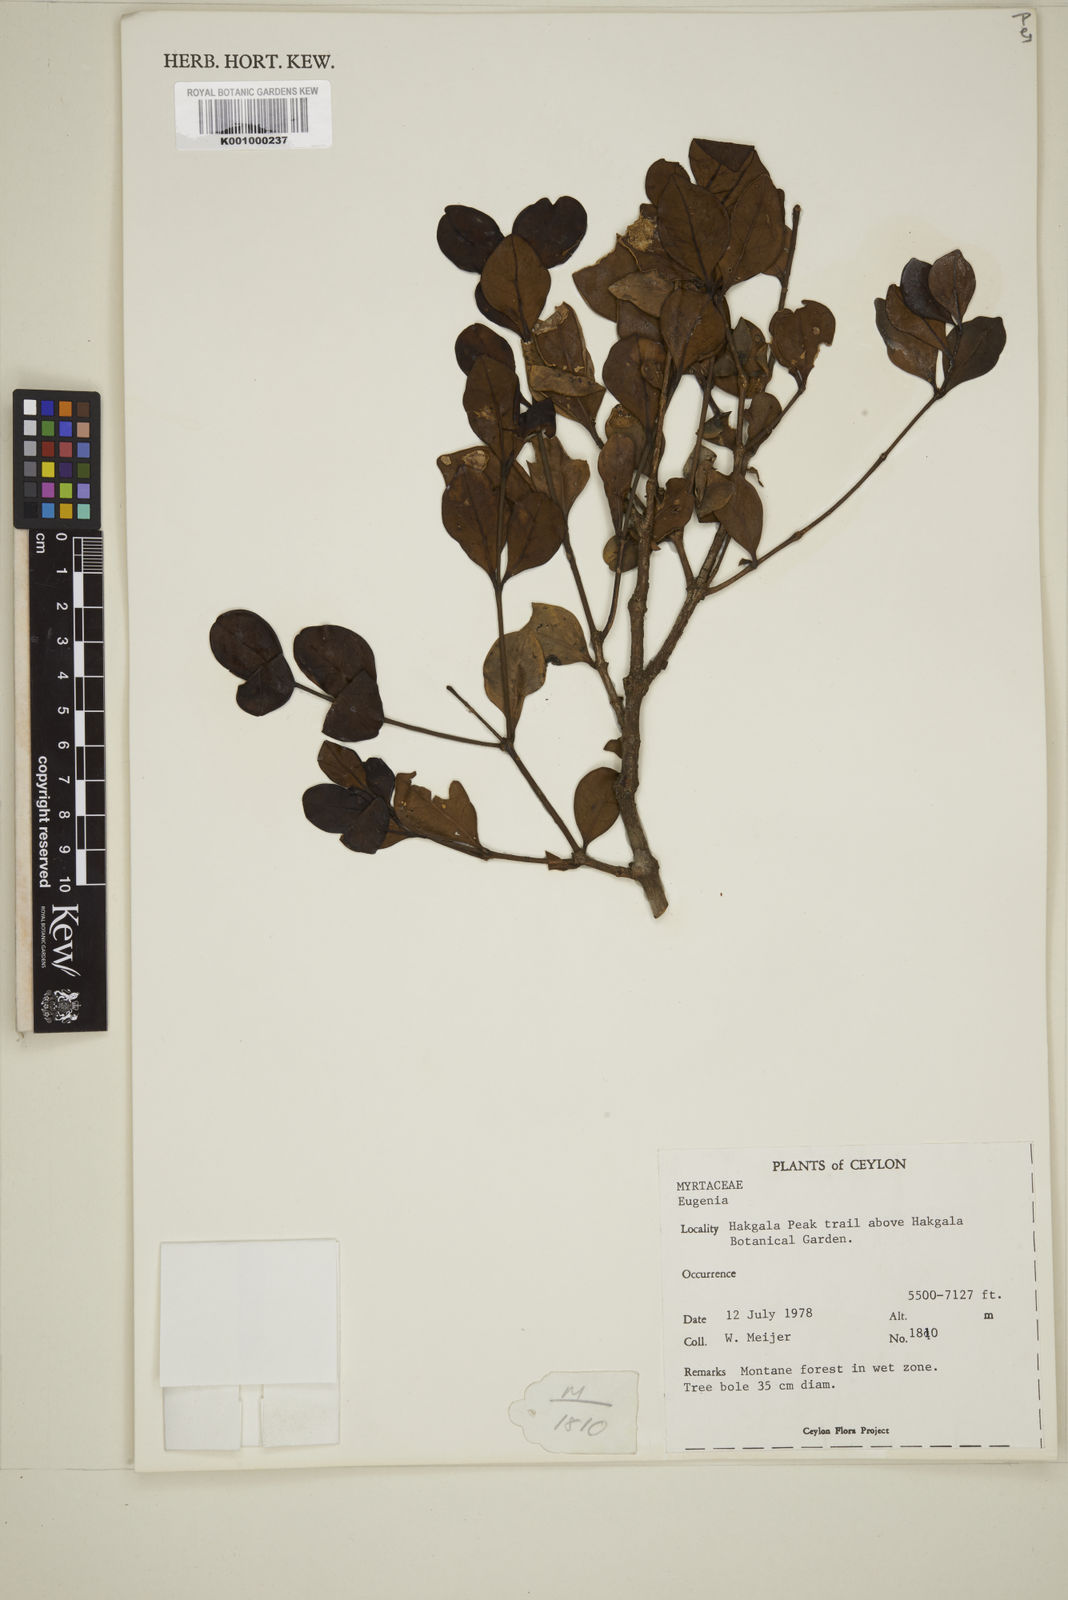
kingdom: Plantae
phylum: Tracheophyta
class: Magnoliopsida
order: Myrtales
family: Myrtaceae
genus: Eugenia
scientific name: Eugenia
